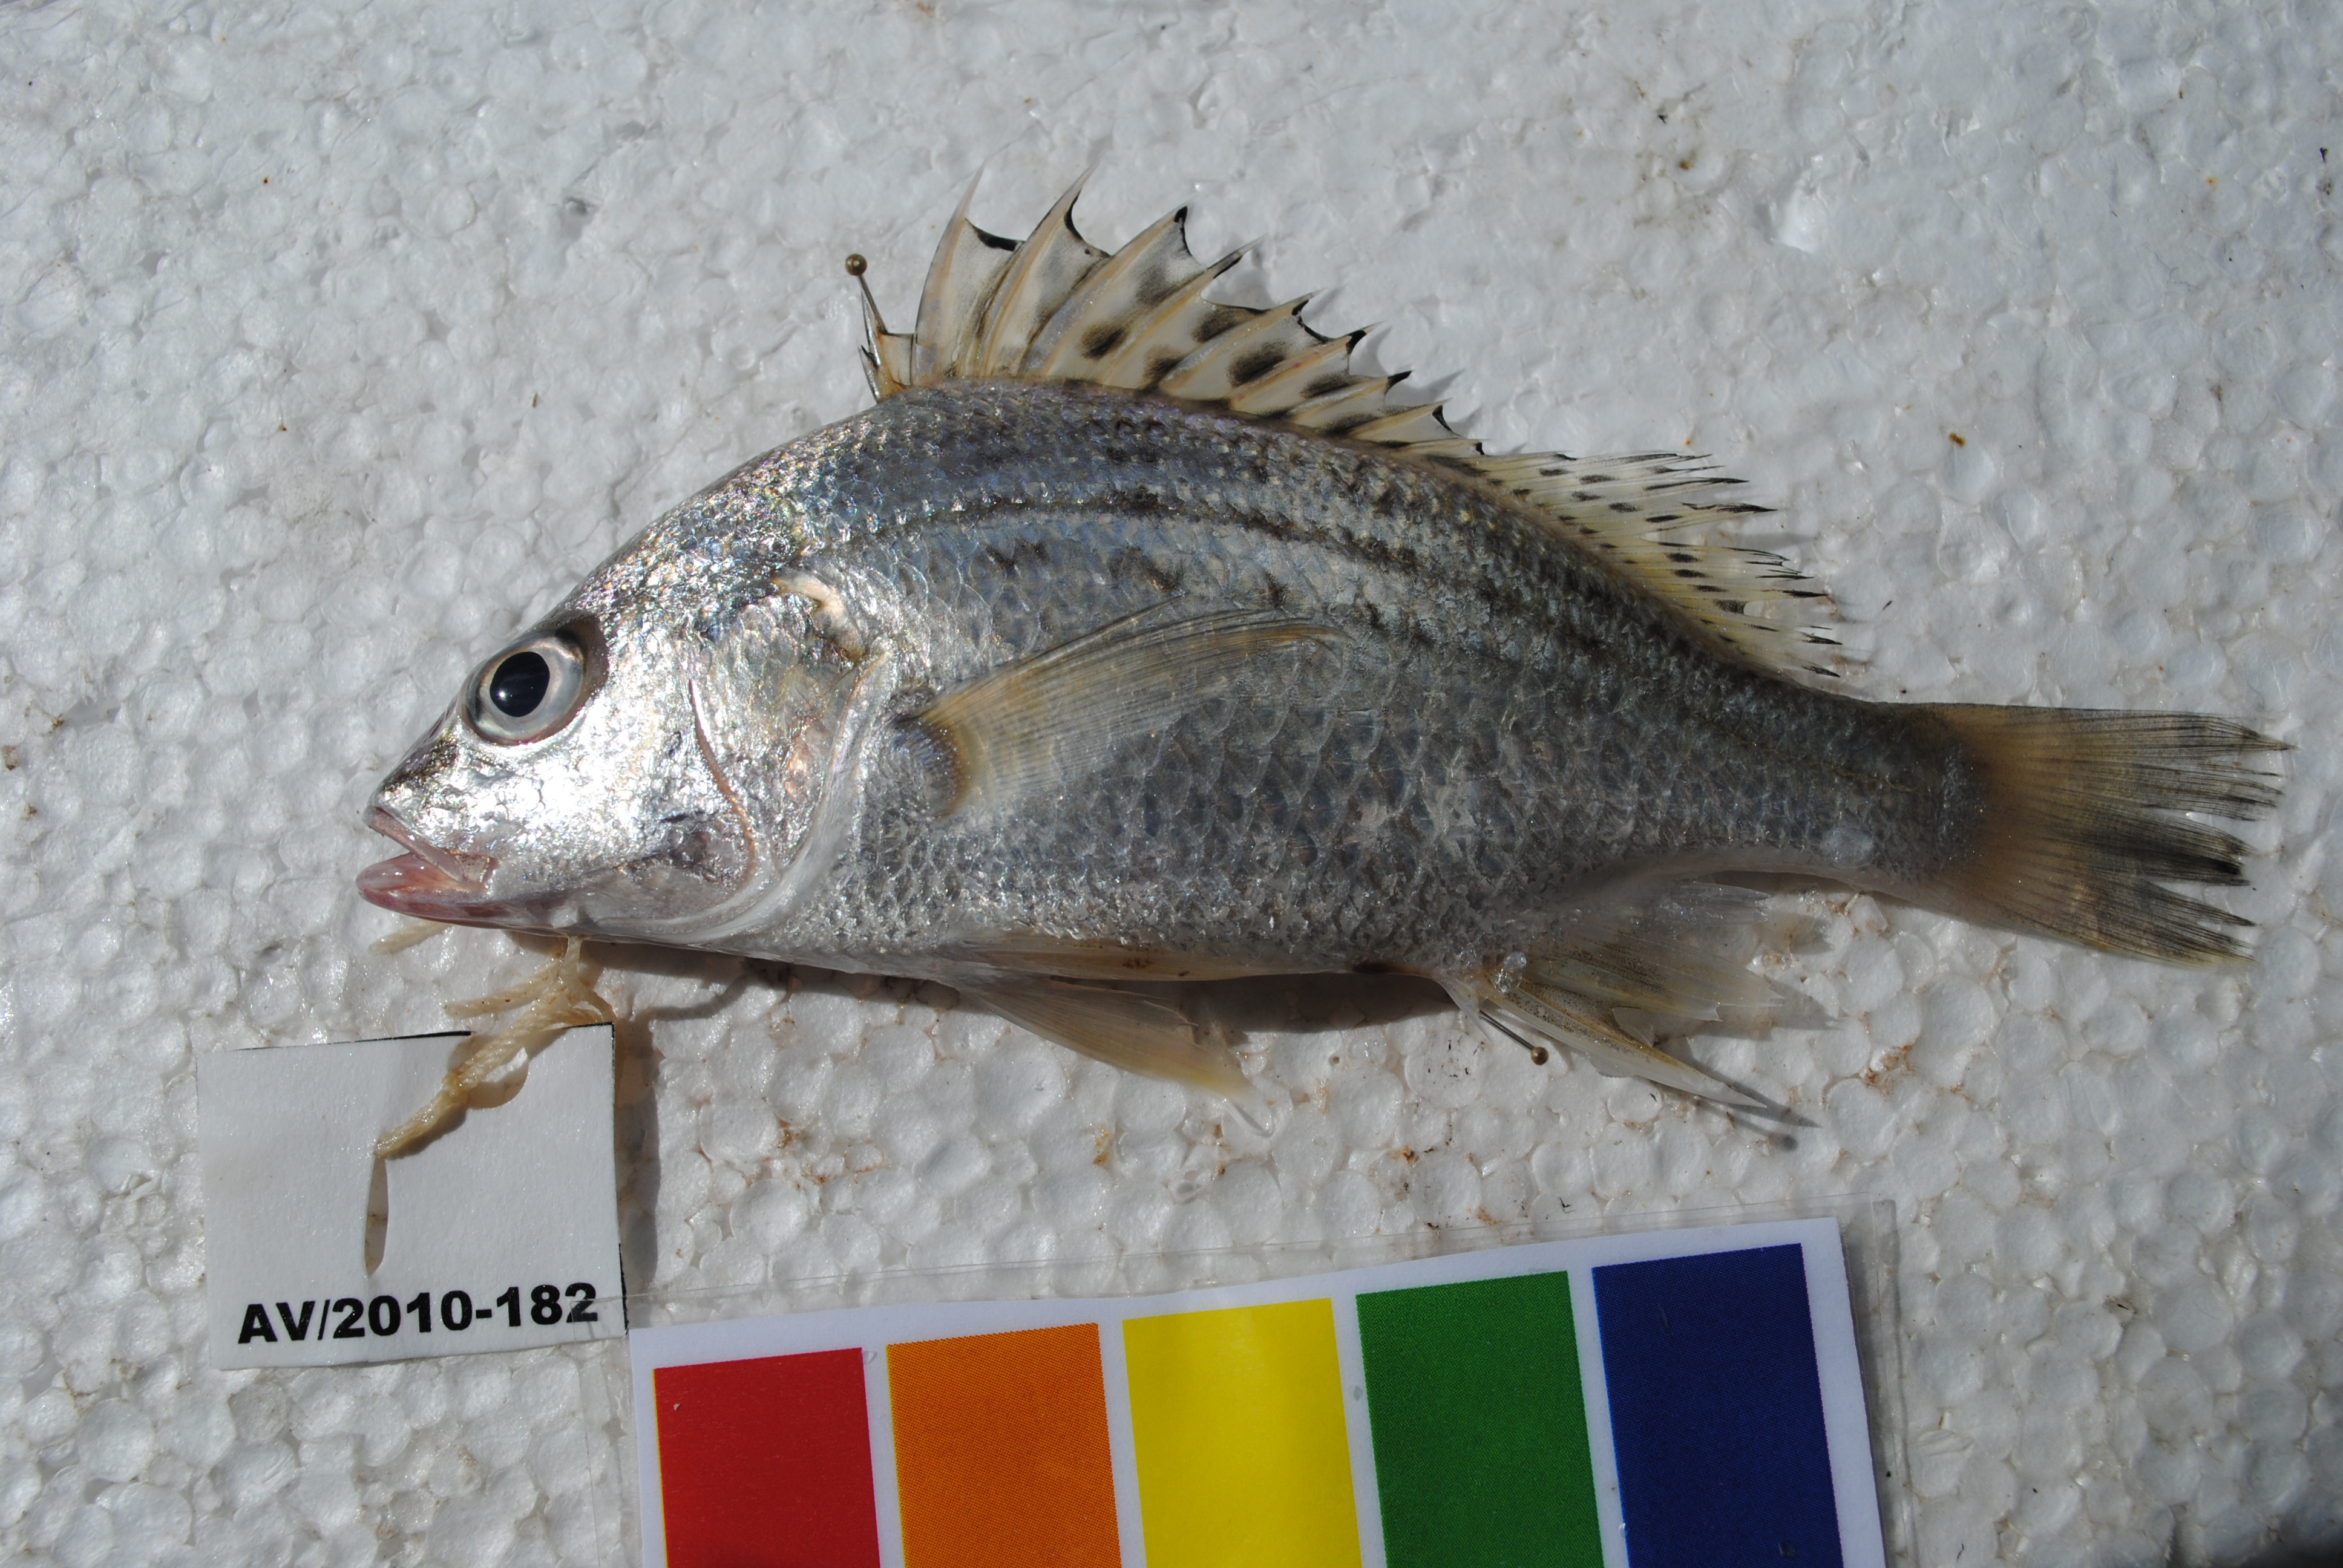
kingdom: Animalia
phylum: Chordata
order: Perciformes
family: Haemulidae
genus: Pomadasys
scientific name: Pomadasys kaakan
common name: Javelin grunter
